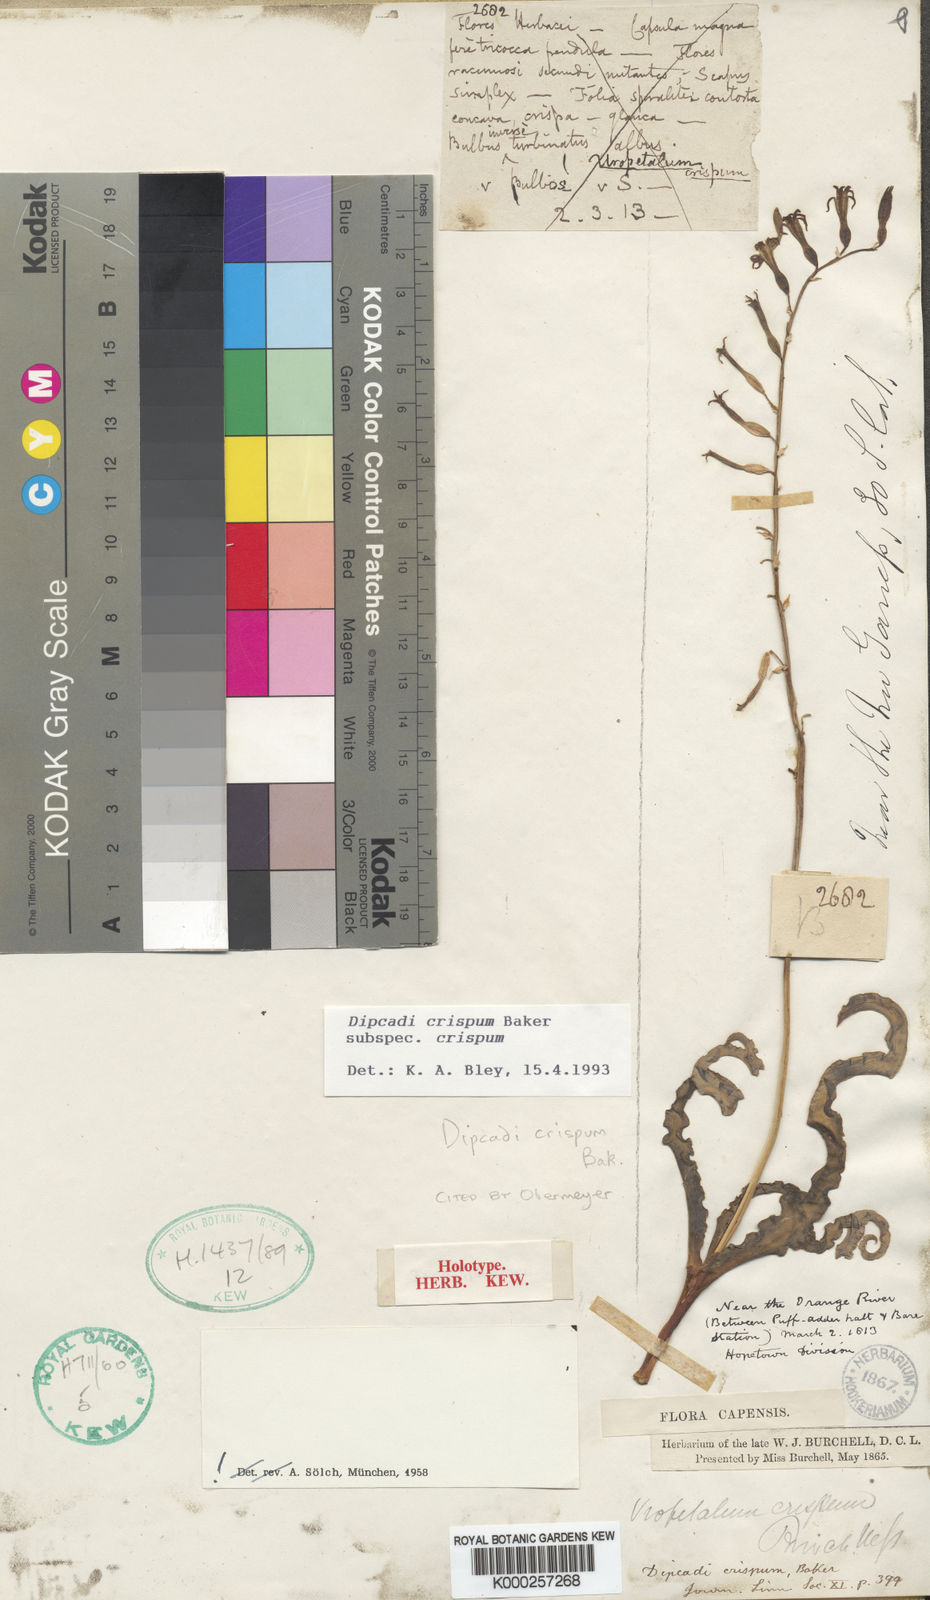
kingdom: Plantae
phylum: Tracheophyta
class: Liliopsida
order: Asparagales
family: Asparagaceae
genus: Dipcadi
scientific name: Dipcadi crispum
